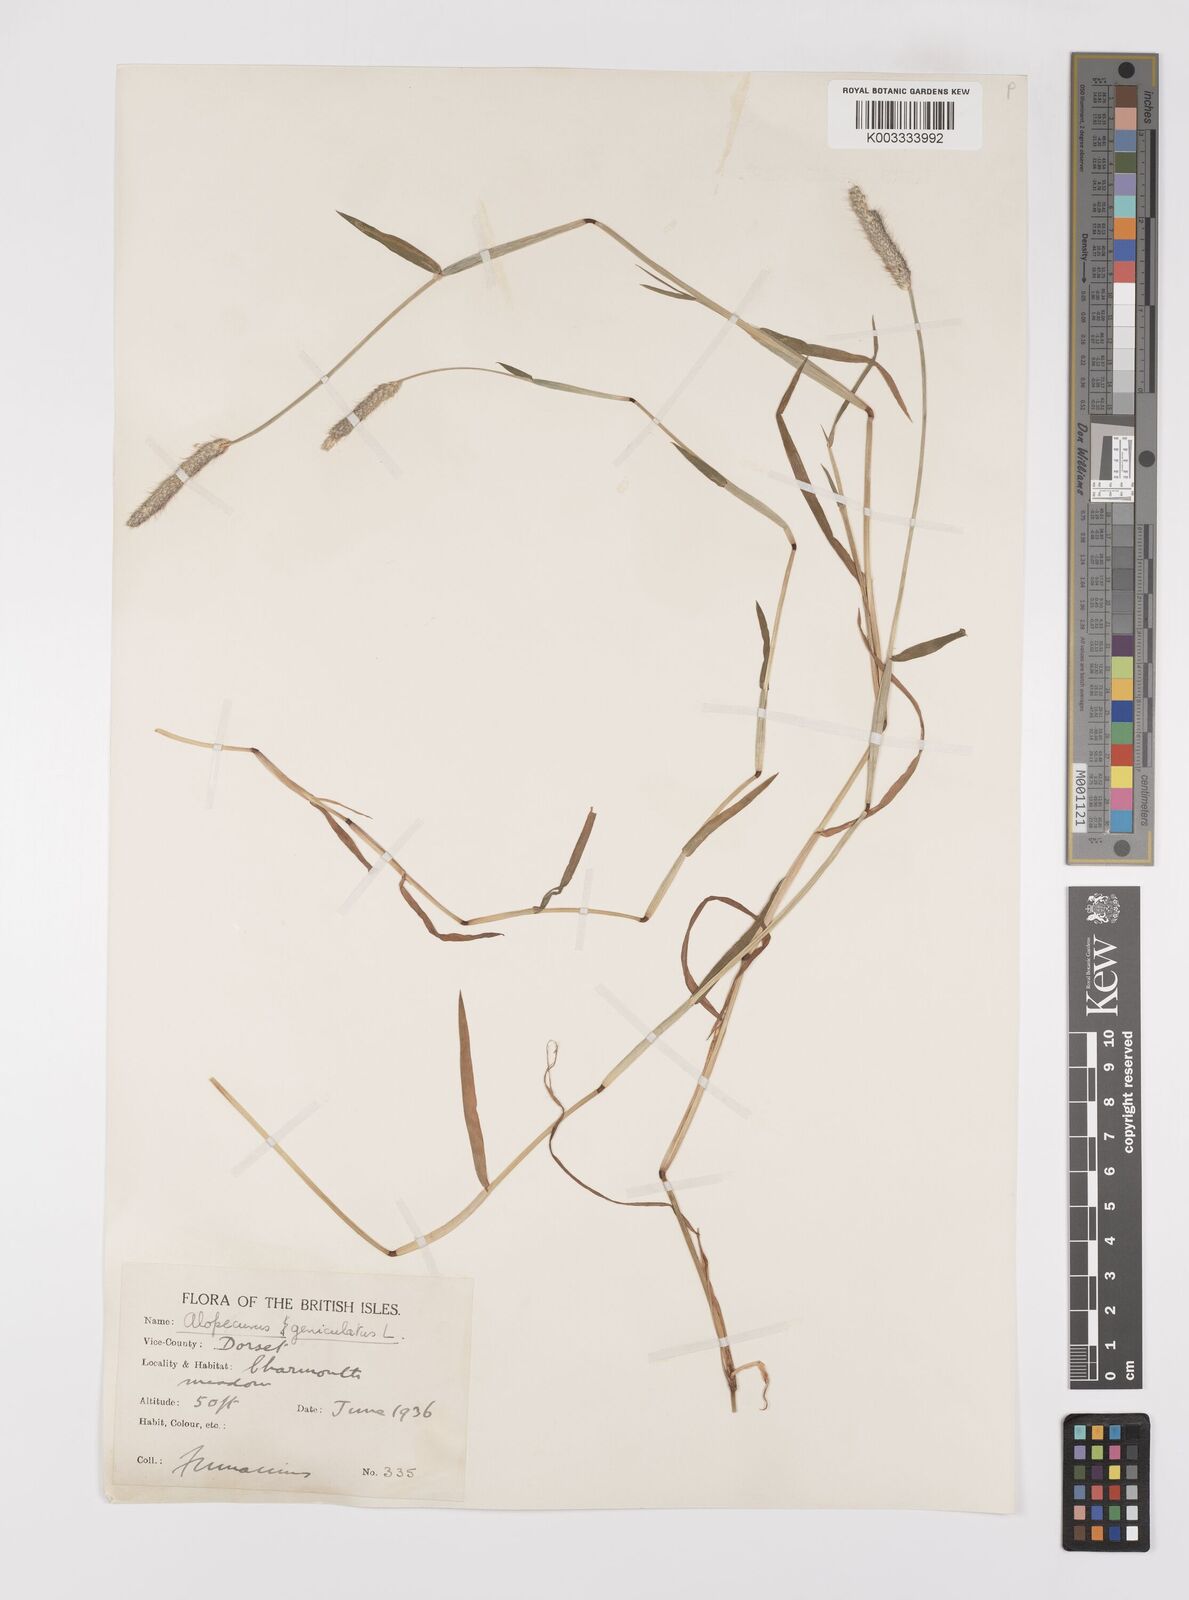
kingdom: Plantae
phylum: Tracheophyta
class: Liliopsida
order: Poales
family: Poaceae
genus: Alopecurus
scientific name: Alopecurus geniculatus
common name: Water foxtail
